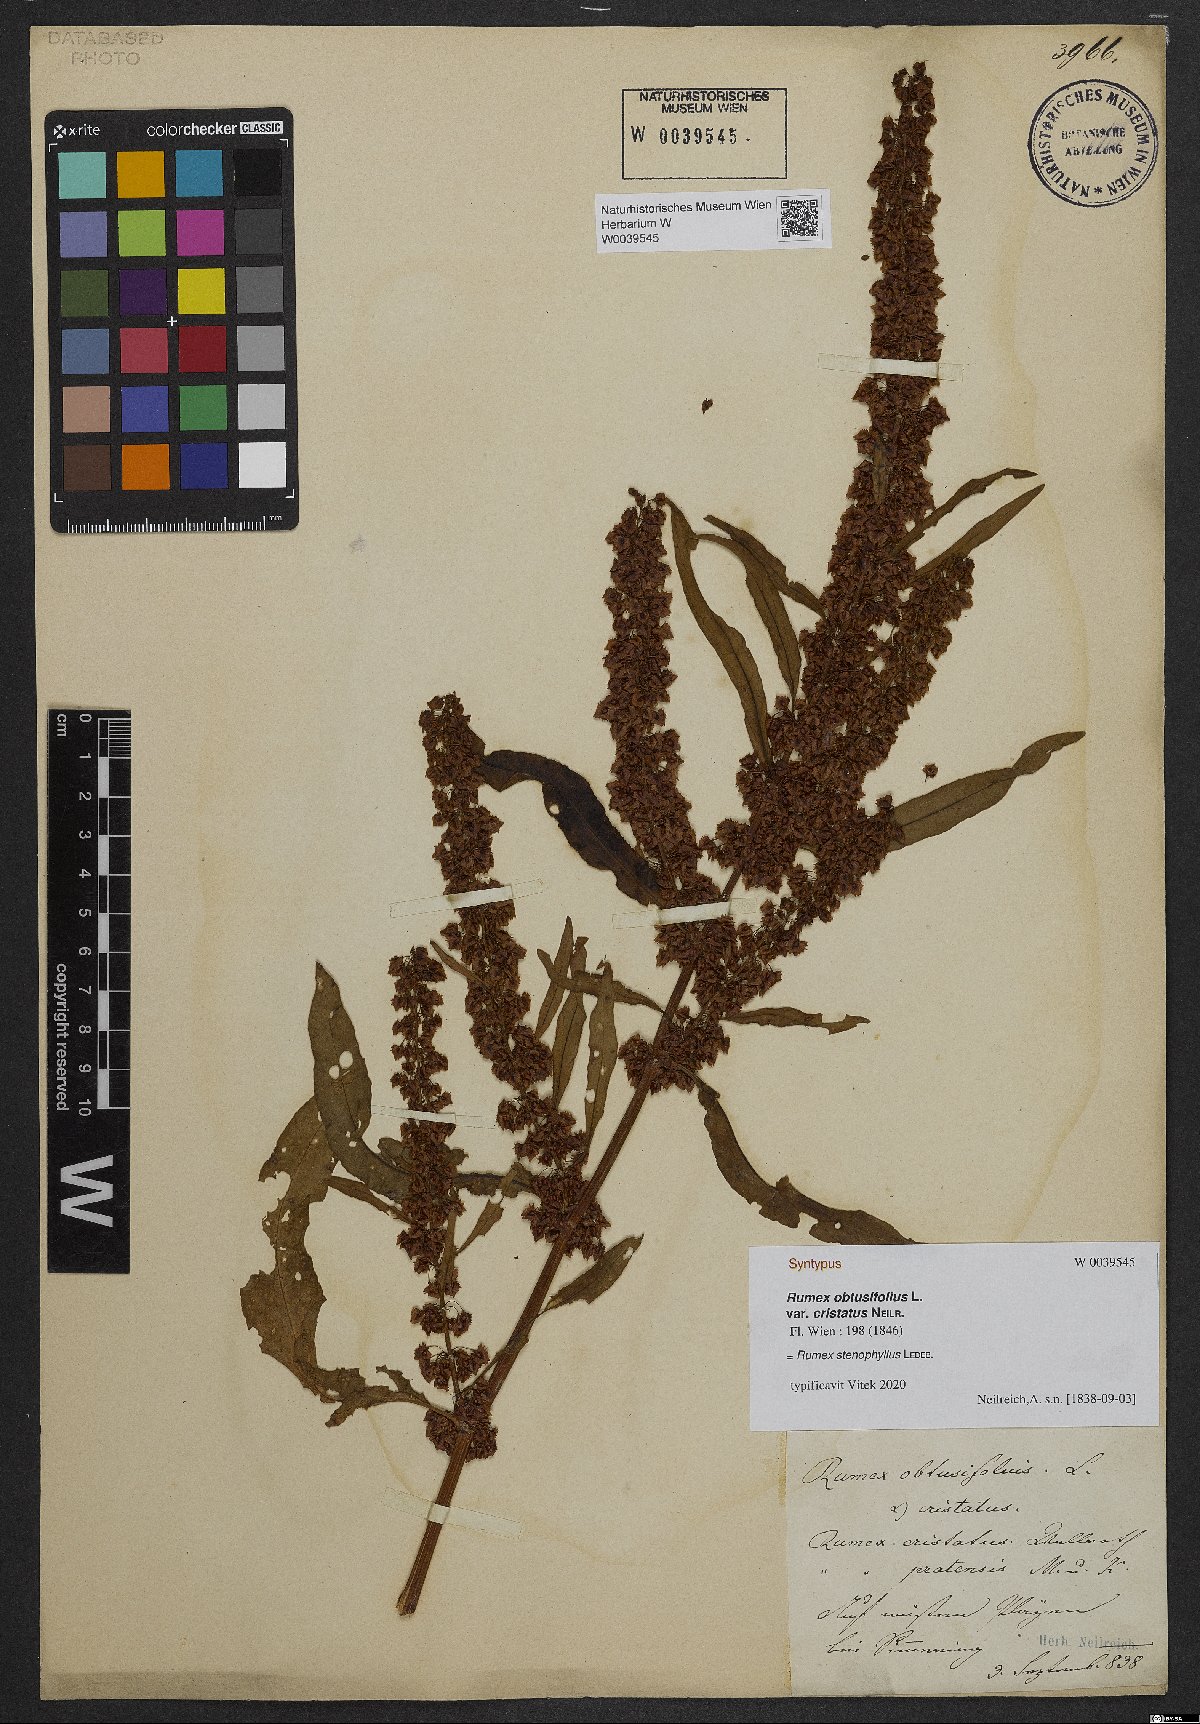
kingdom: Plantae
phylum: Tracheophyta
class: Magnoliopsida
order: Caryophyllales
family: Polygonaceae
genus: Rumex
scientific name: Rumex stenophyllus
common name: Narrowleaf dock
